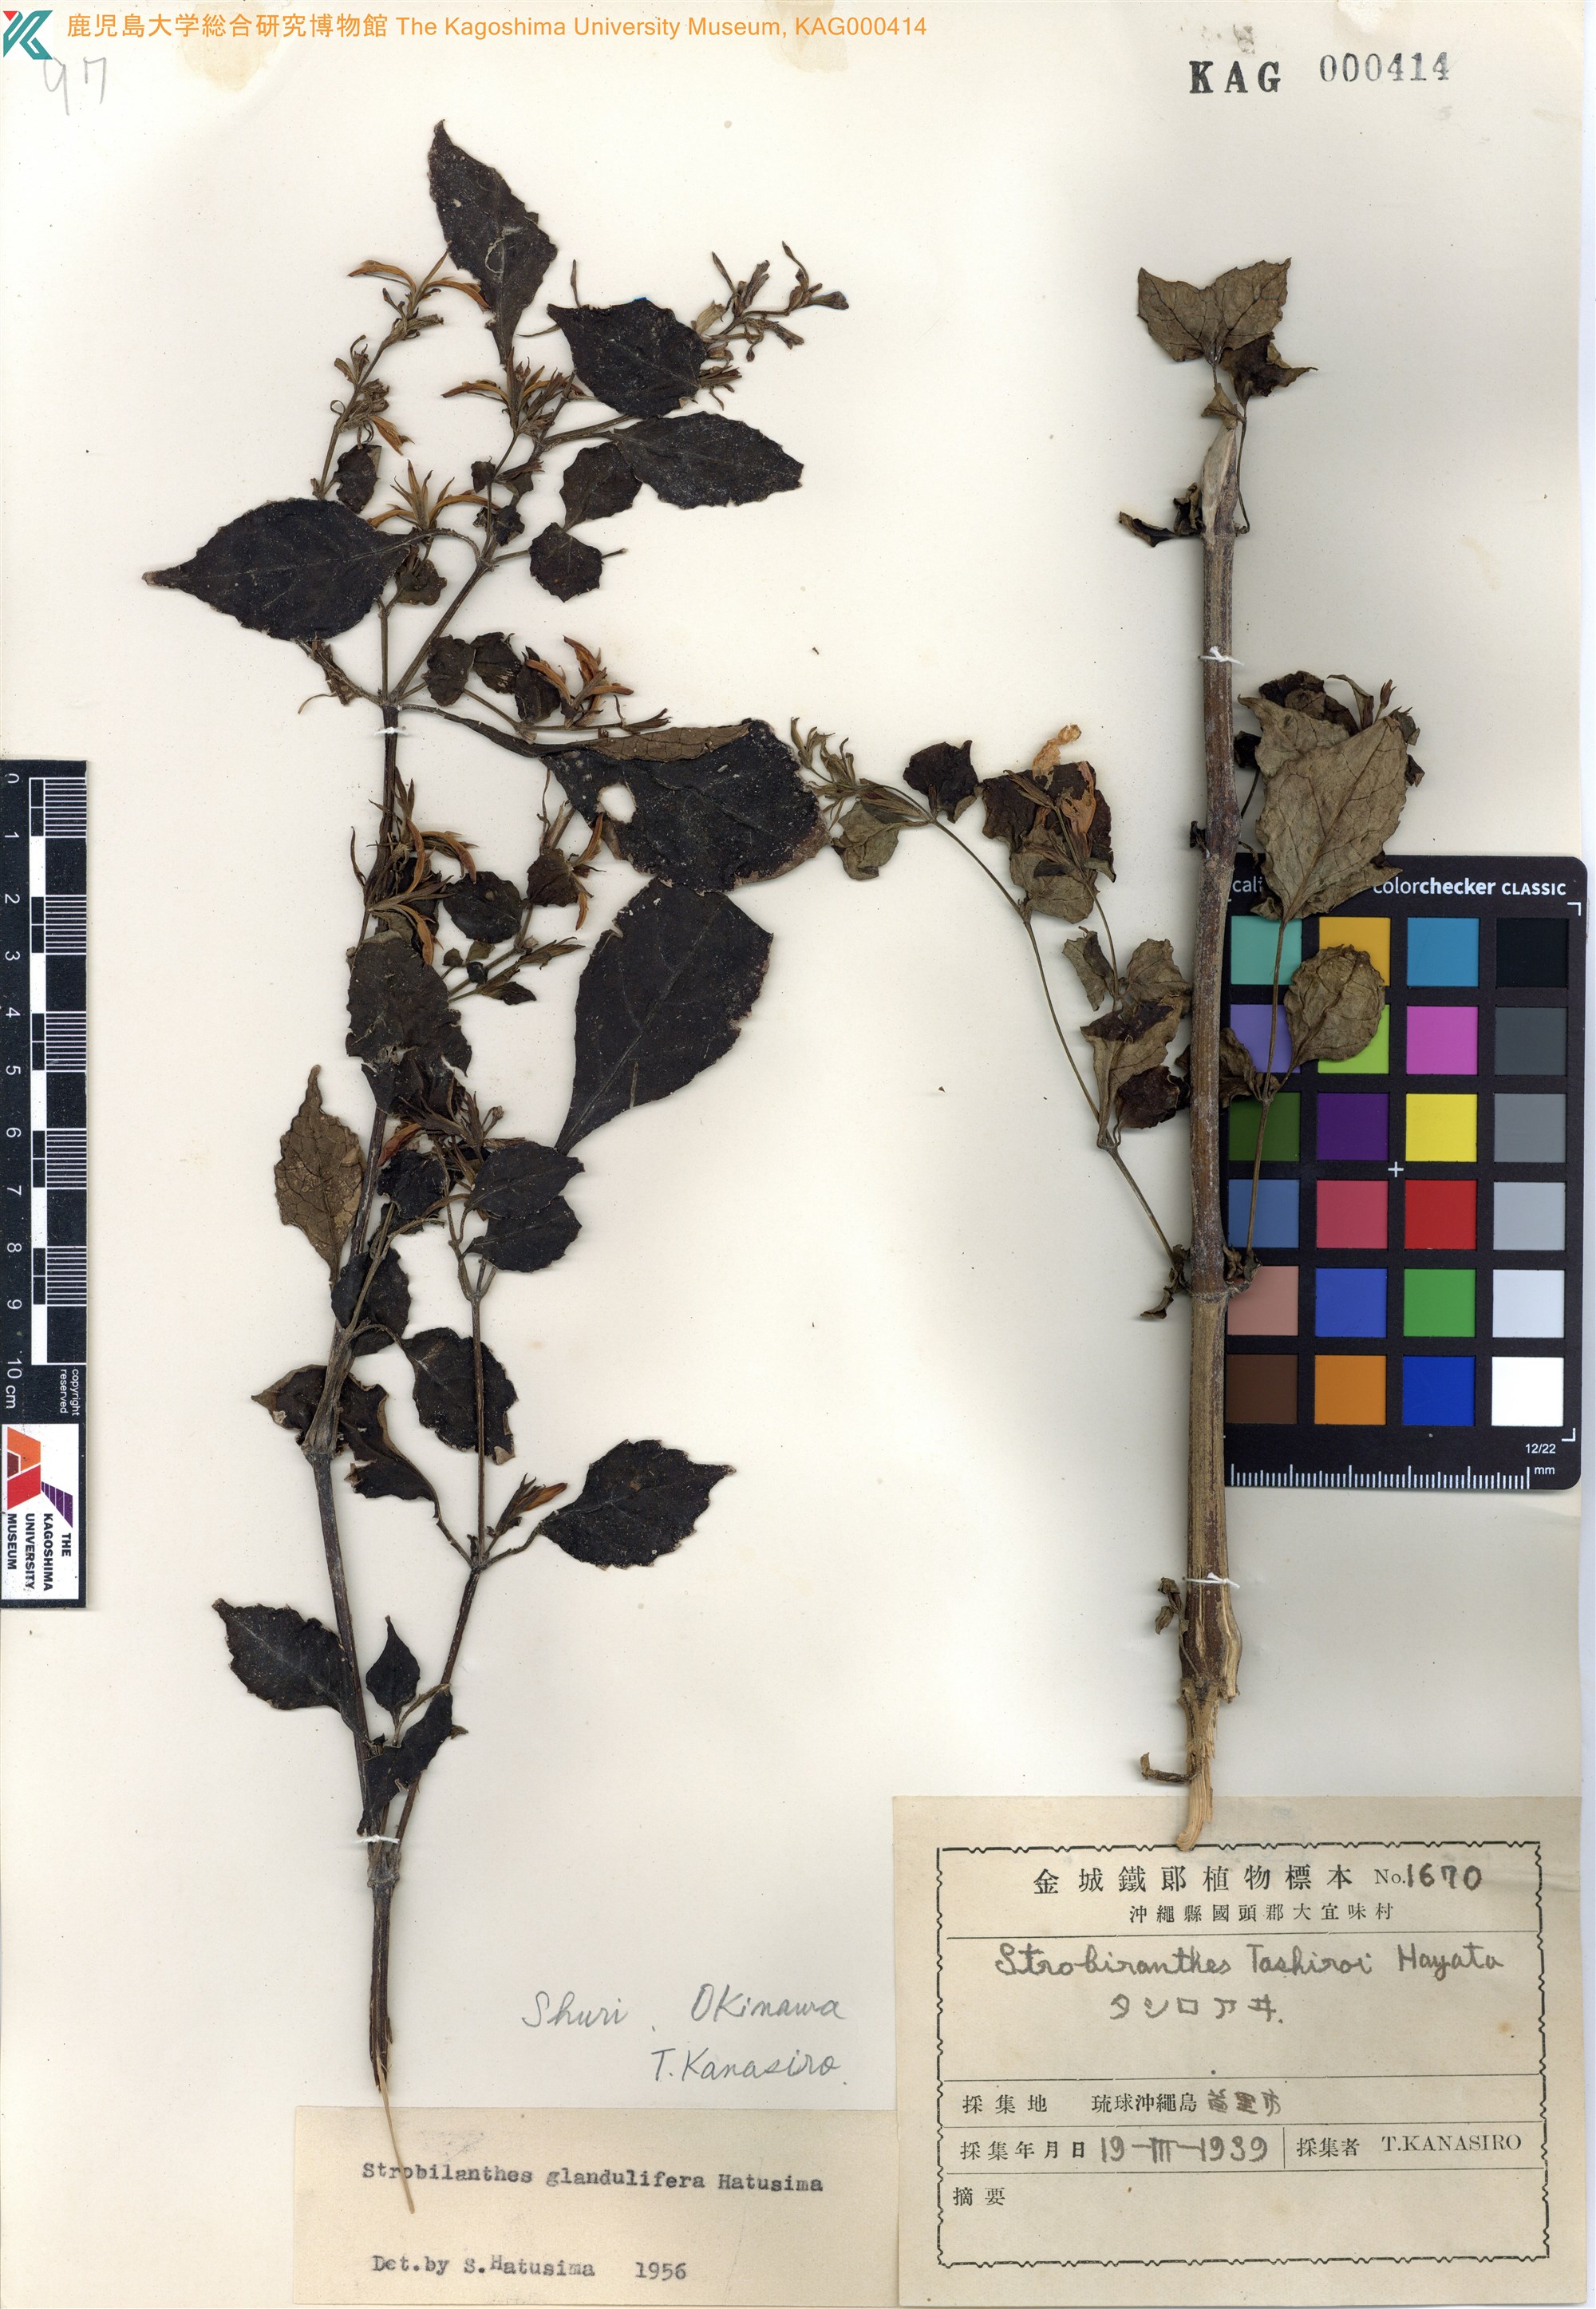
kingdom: Plantae
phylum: Tracheophyta
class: Magnoliopsida
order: Lamiales
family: Acanthaceae
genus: Strobilanthes
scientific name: Strobilanthes flexicaulis
